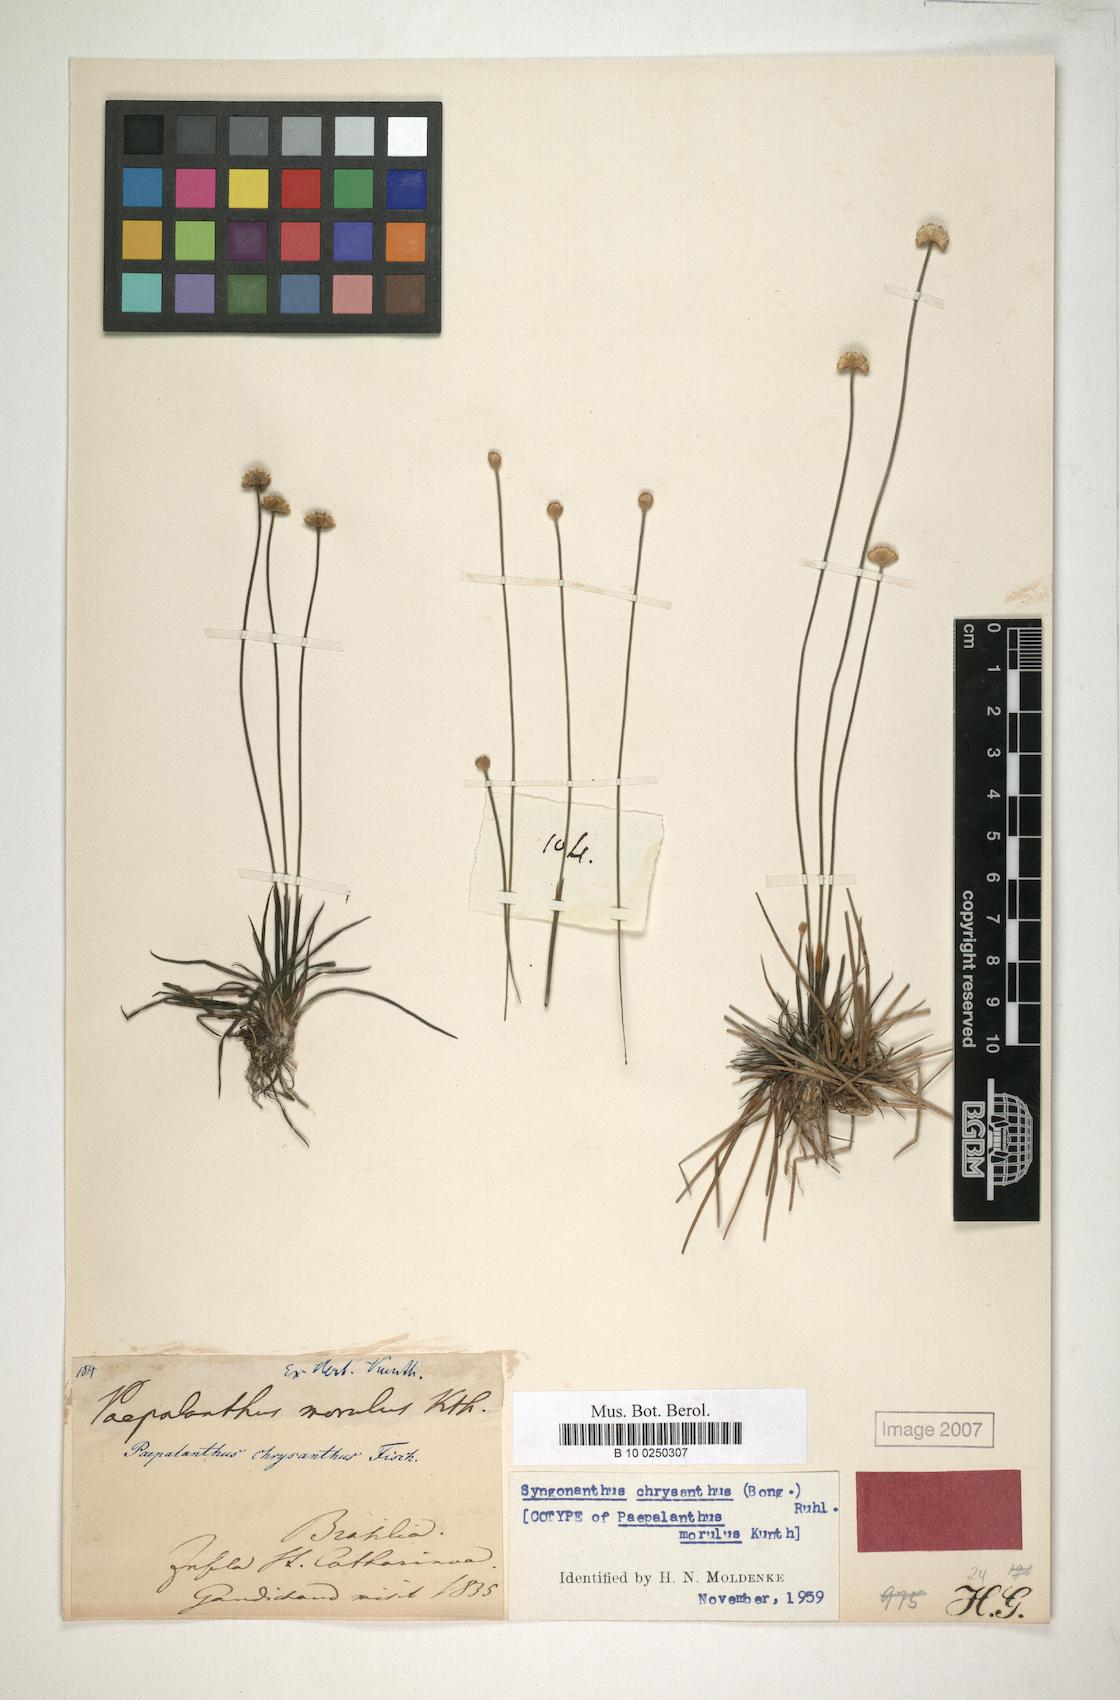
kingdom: Plantae
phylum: Tracheophyta
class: Liliopsida
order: Poales
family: Eriocaulaceae
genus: Syngonanthus
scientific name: Syngonanthus chrysanthus
